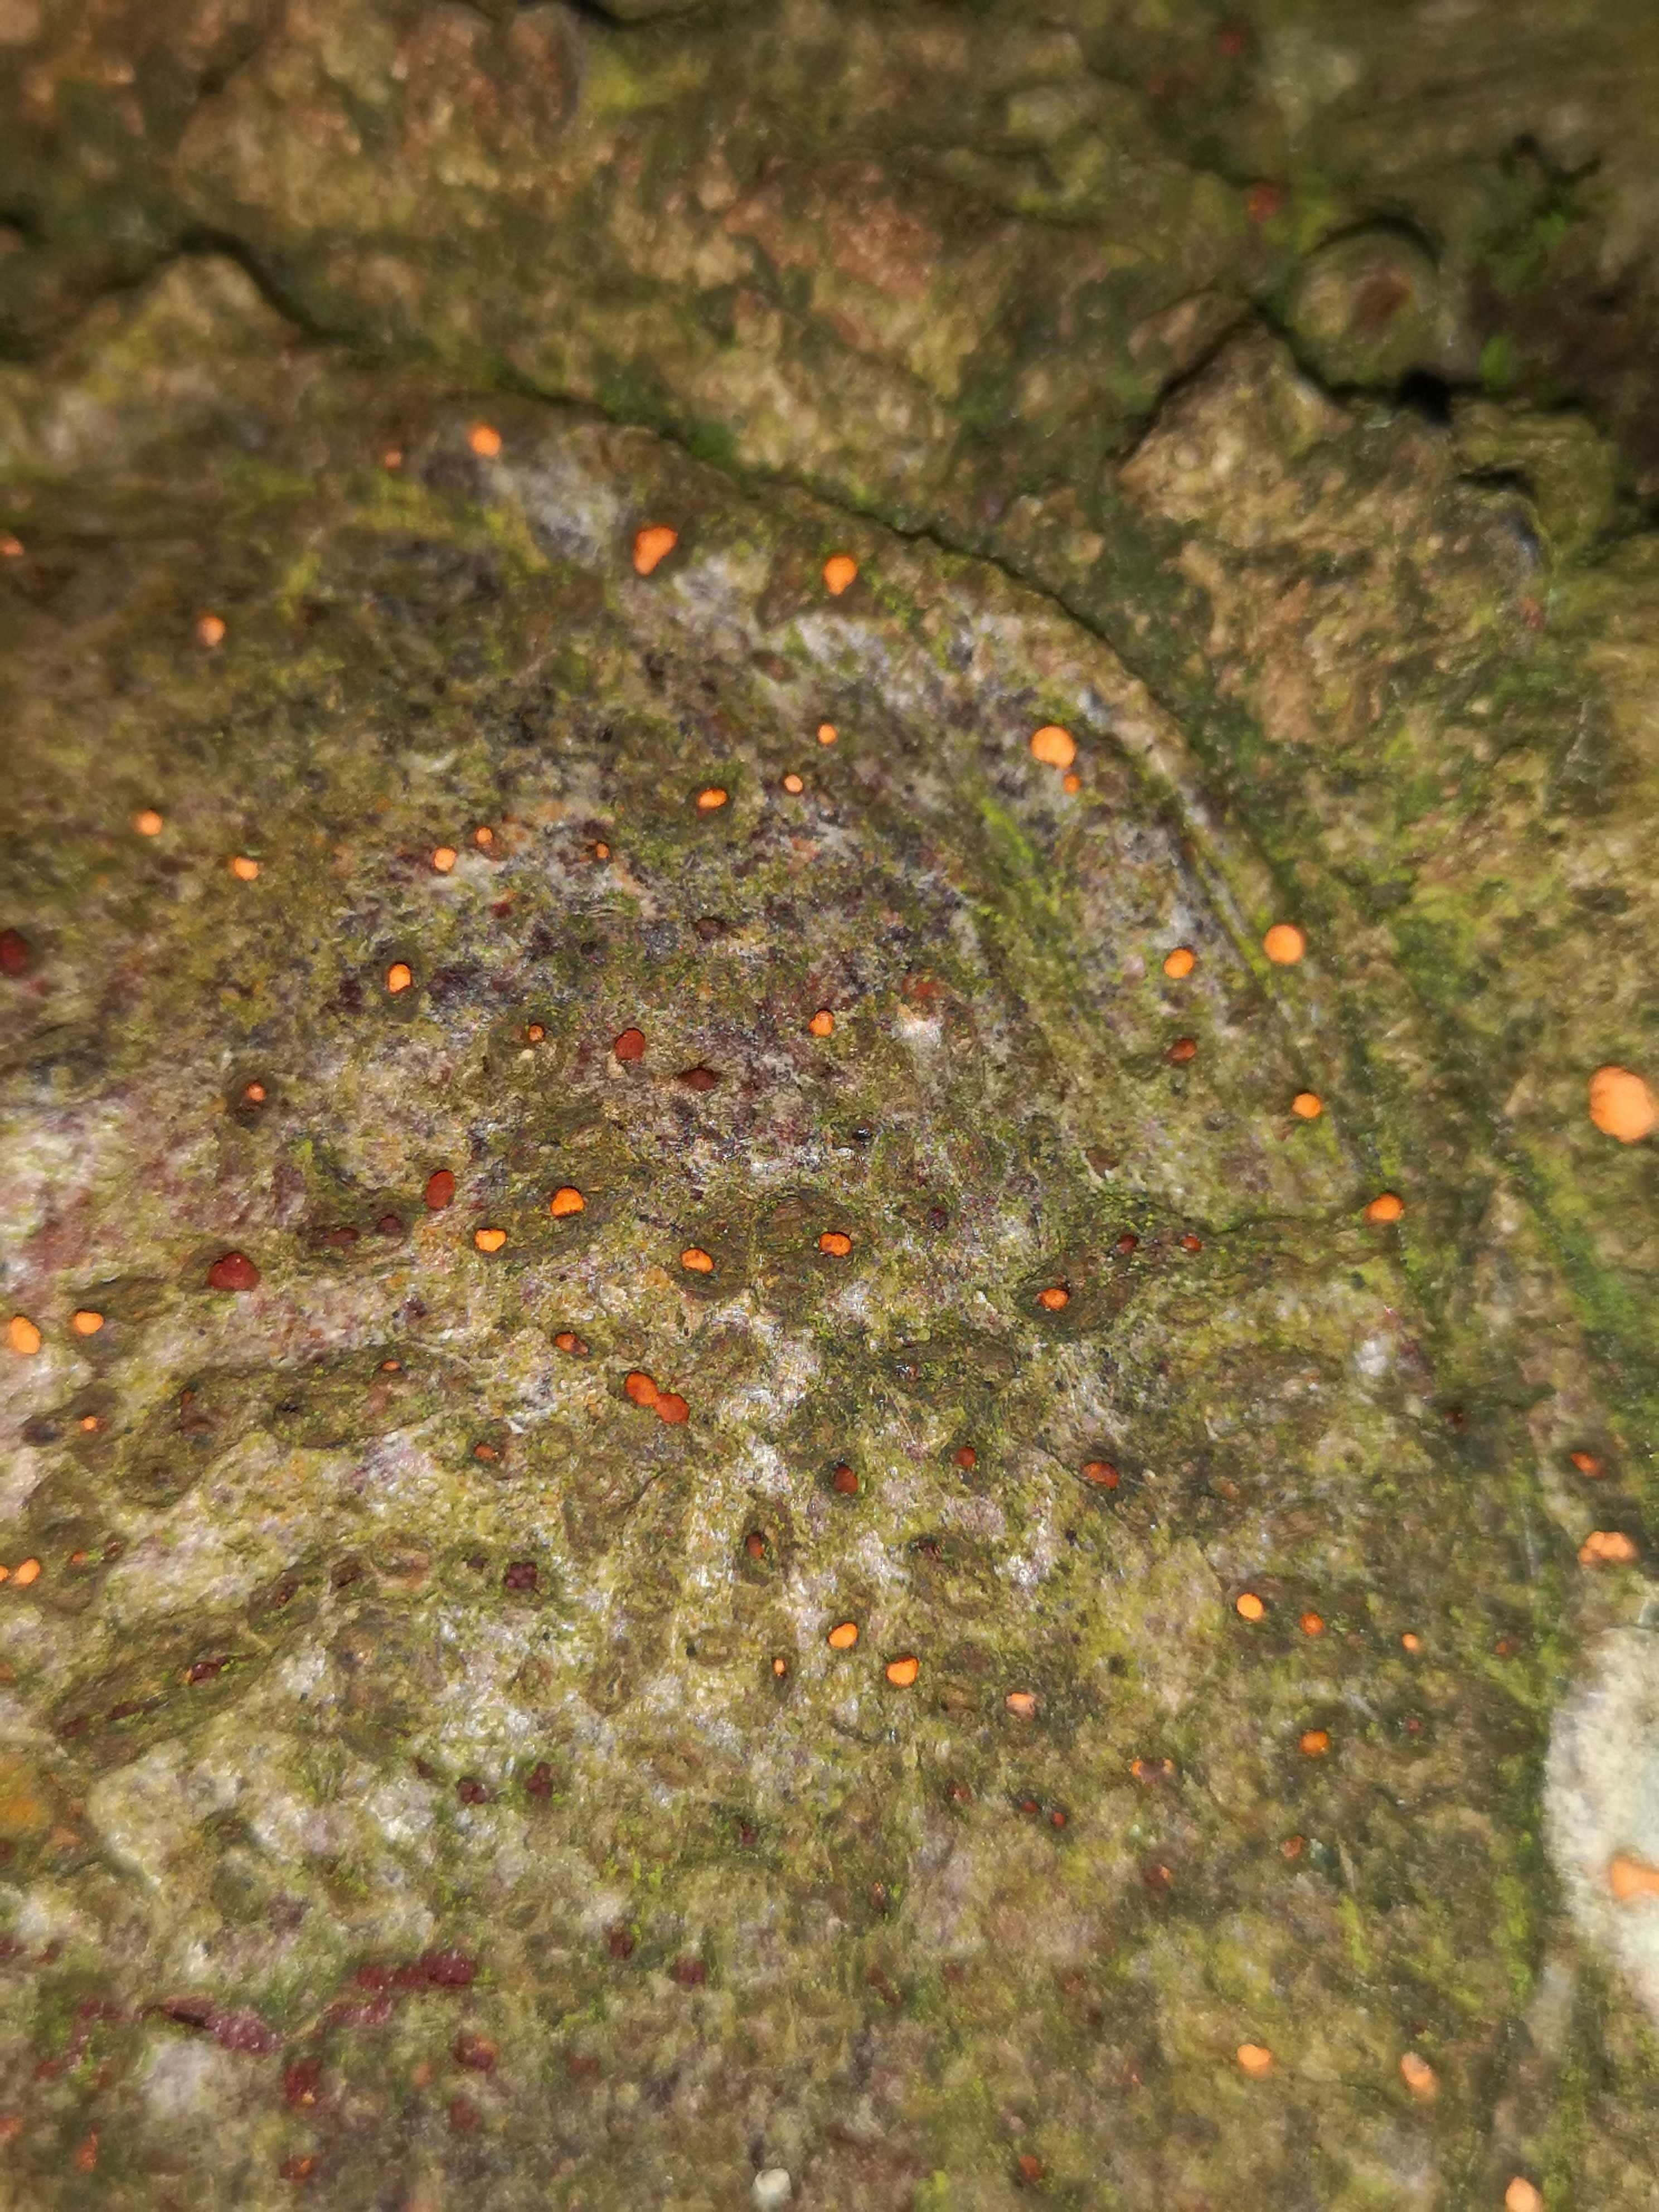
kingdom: Fungi
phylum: Ascomycota
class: Sordariomycetes
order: Hypocreales
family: Nectriaceae
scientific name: Nectriaceae
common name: cinnobersvampfamilien
